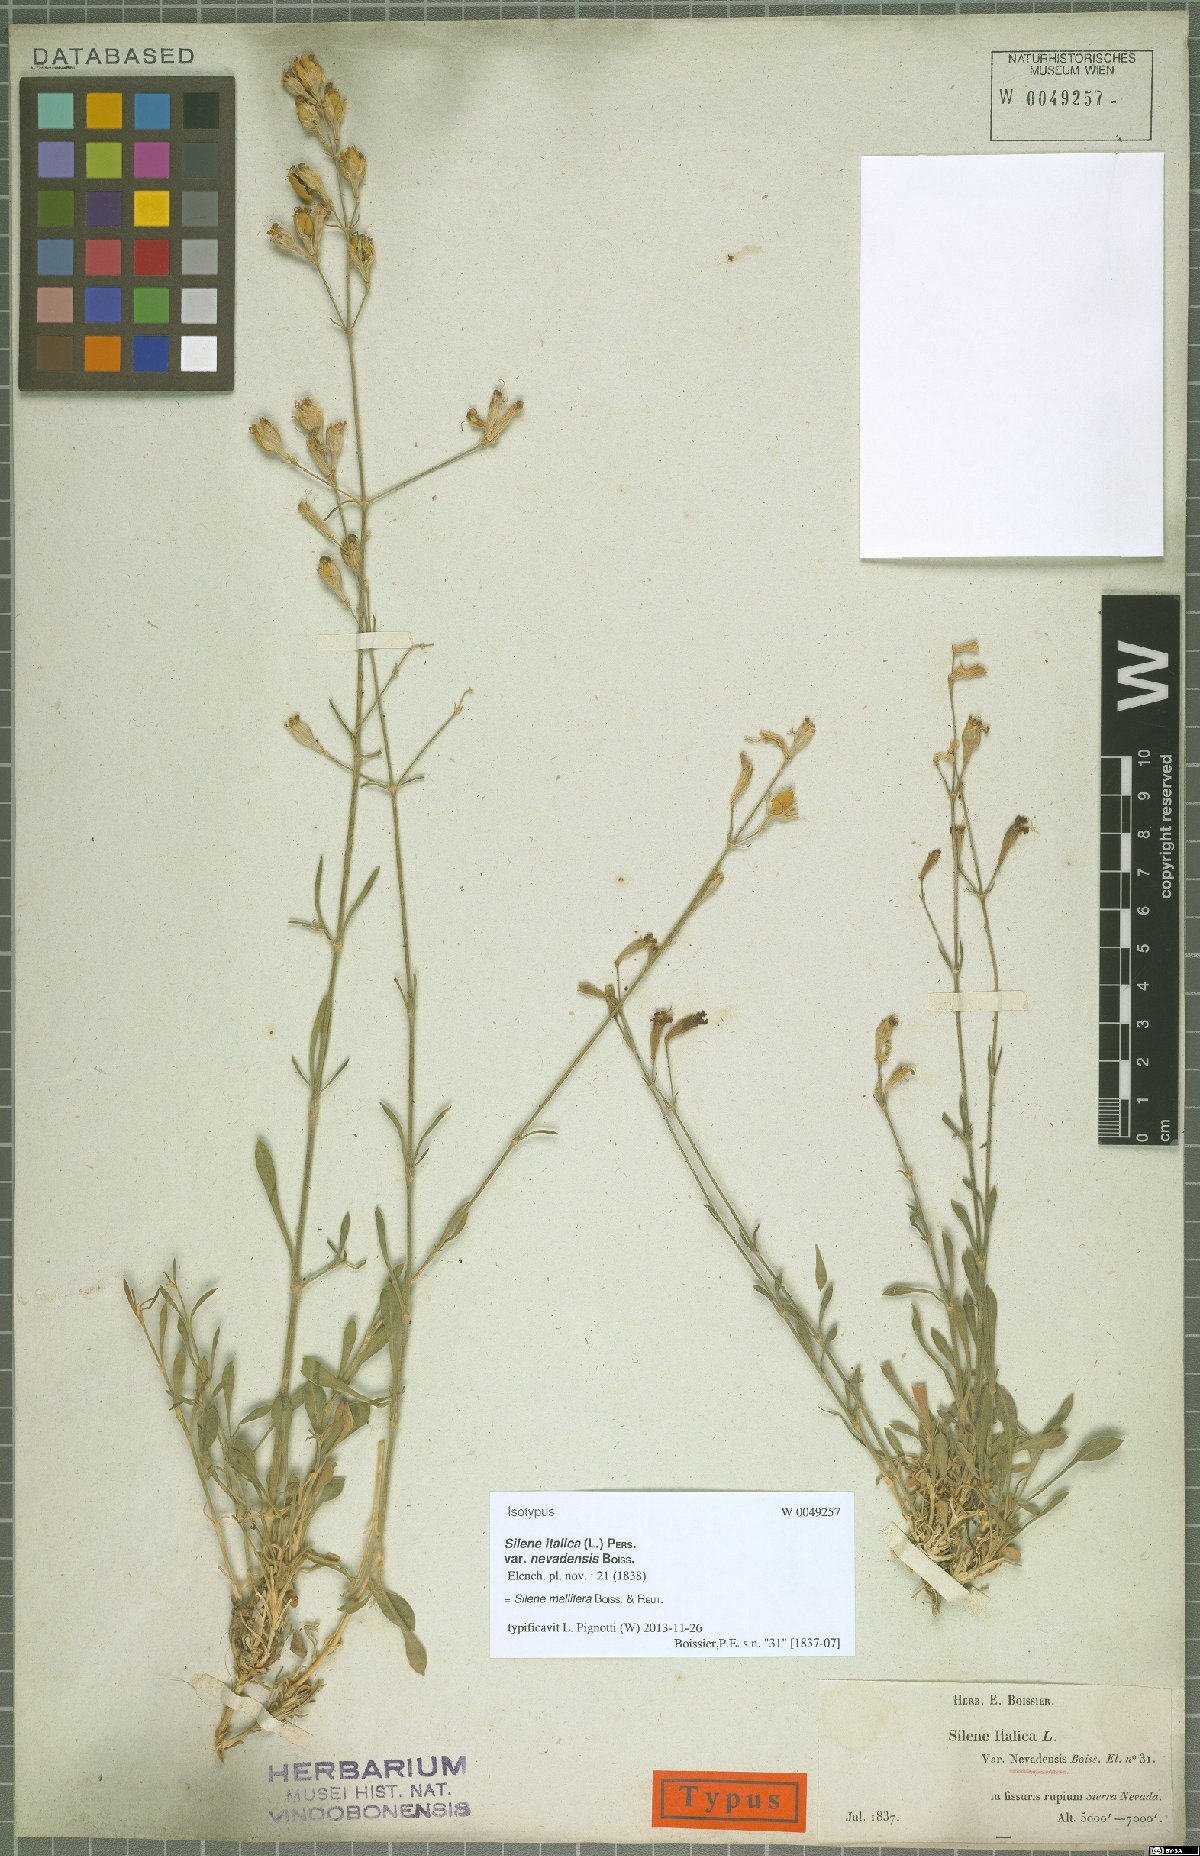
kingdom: Plantae
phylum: Tracheophyta
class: Magnoliopsida
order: Caryophyllales
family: Caryophyllaceae
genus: Silene
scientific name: Silene mellifera
